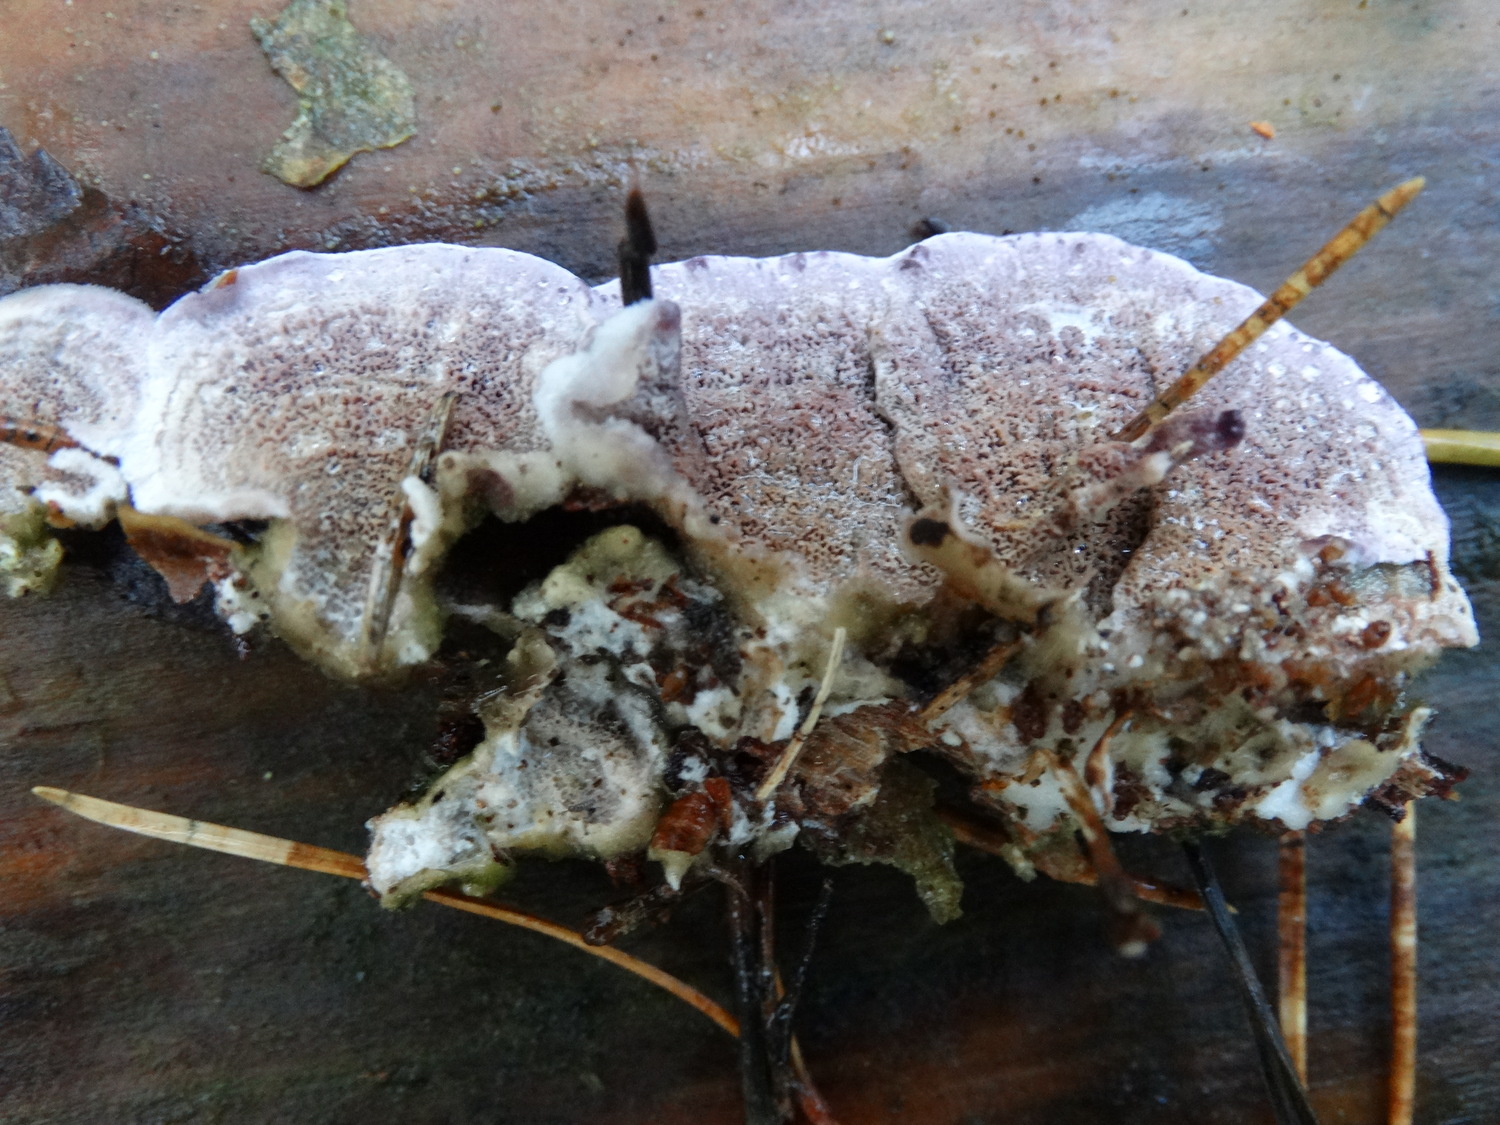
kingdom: Fungi
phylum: Basidiomycota
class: Agaricomycetes
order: Hymenochaetales
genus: Trichaptum
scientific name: Trichaptum abietinum
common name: almindelig violporesvamp
